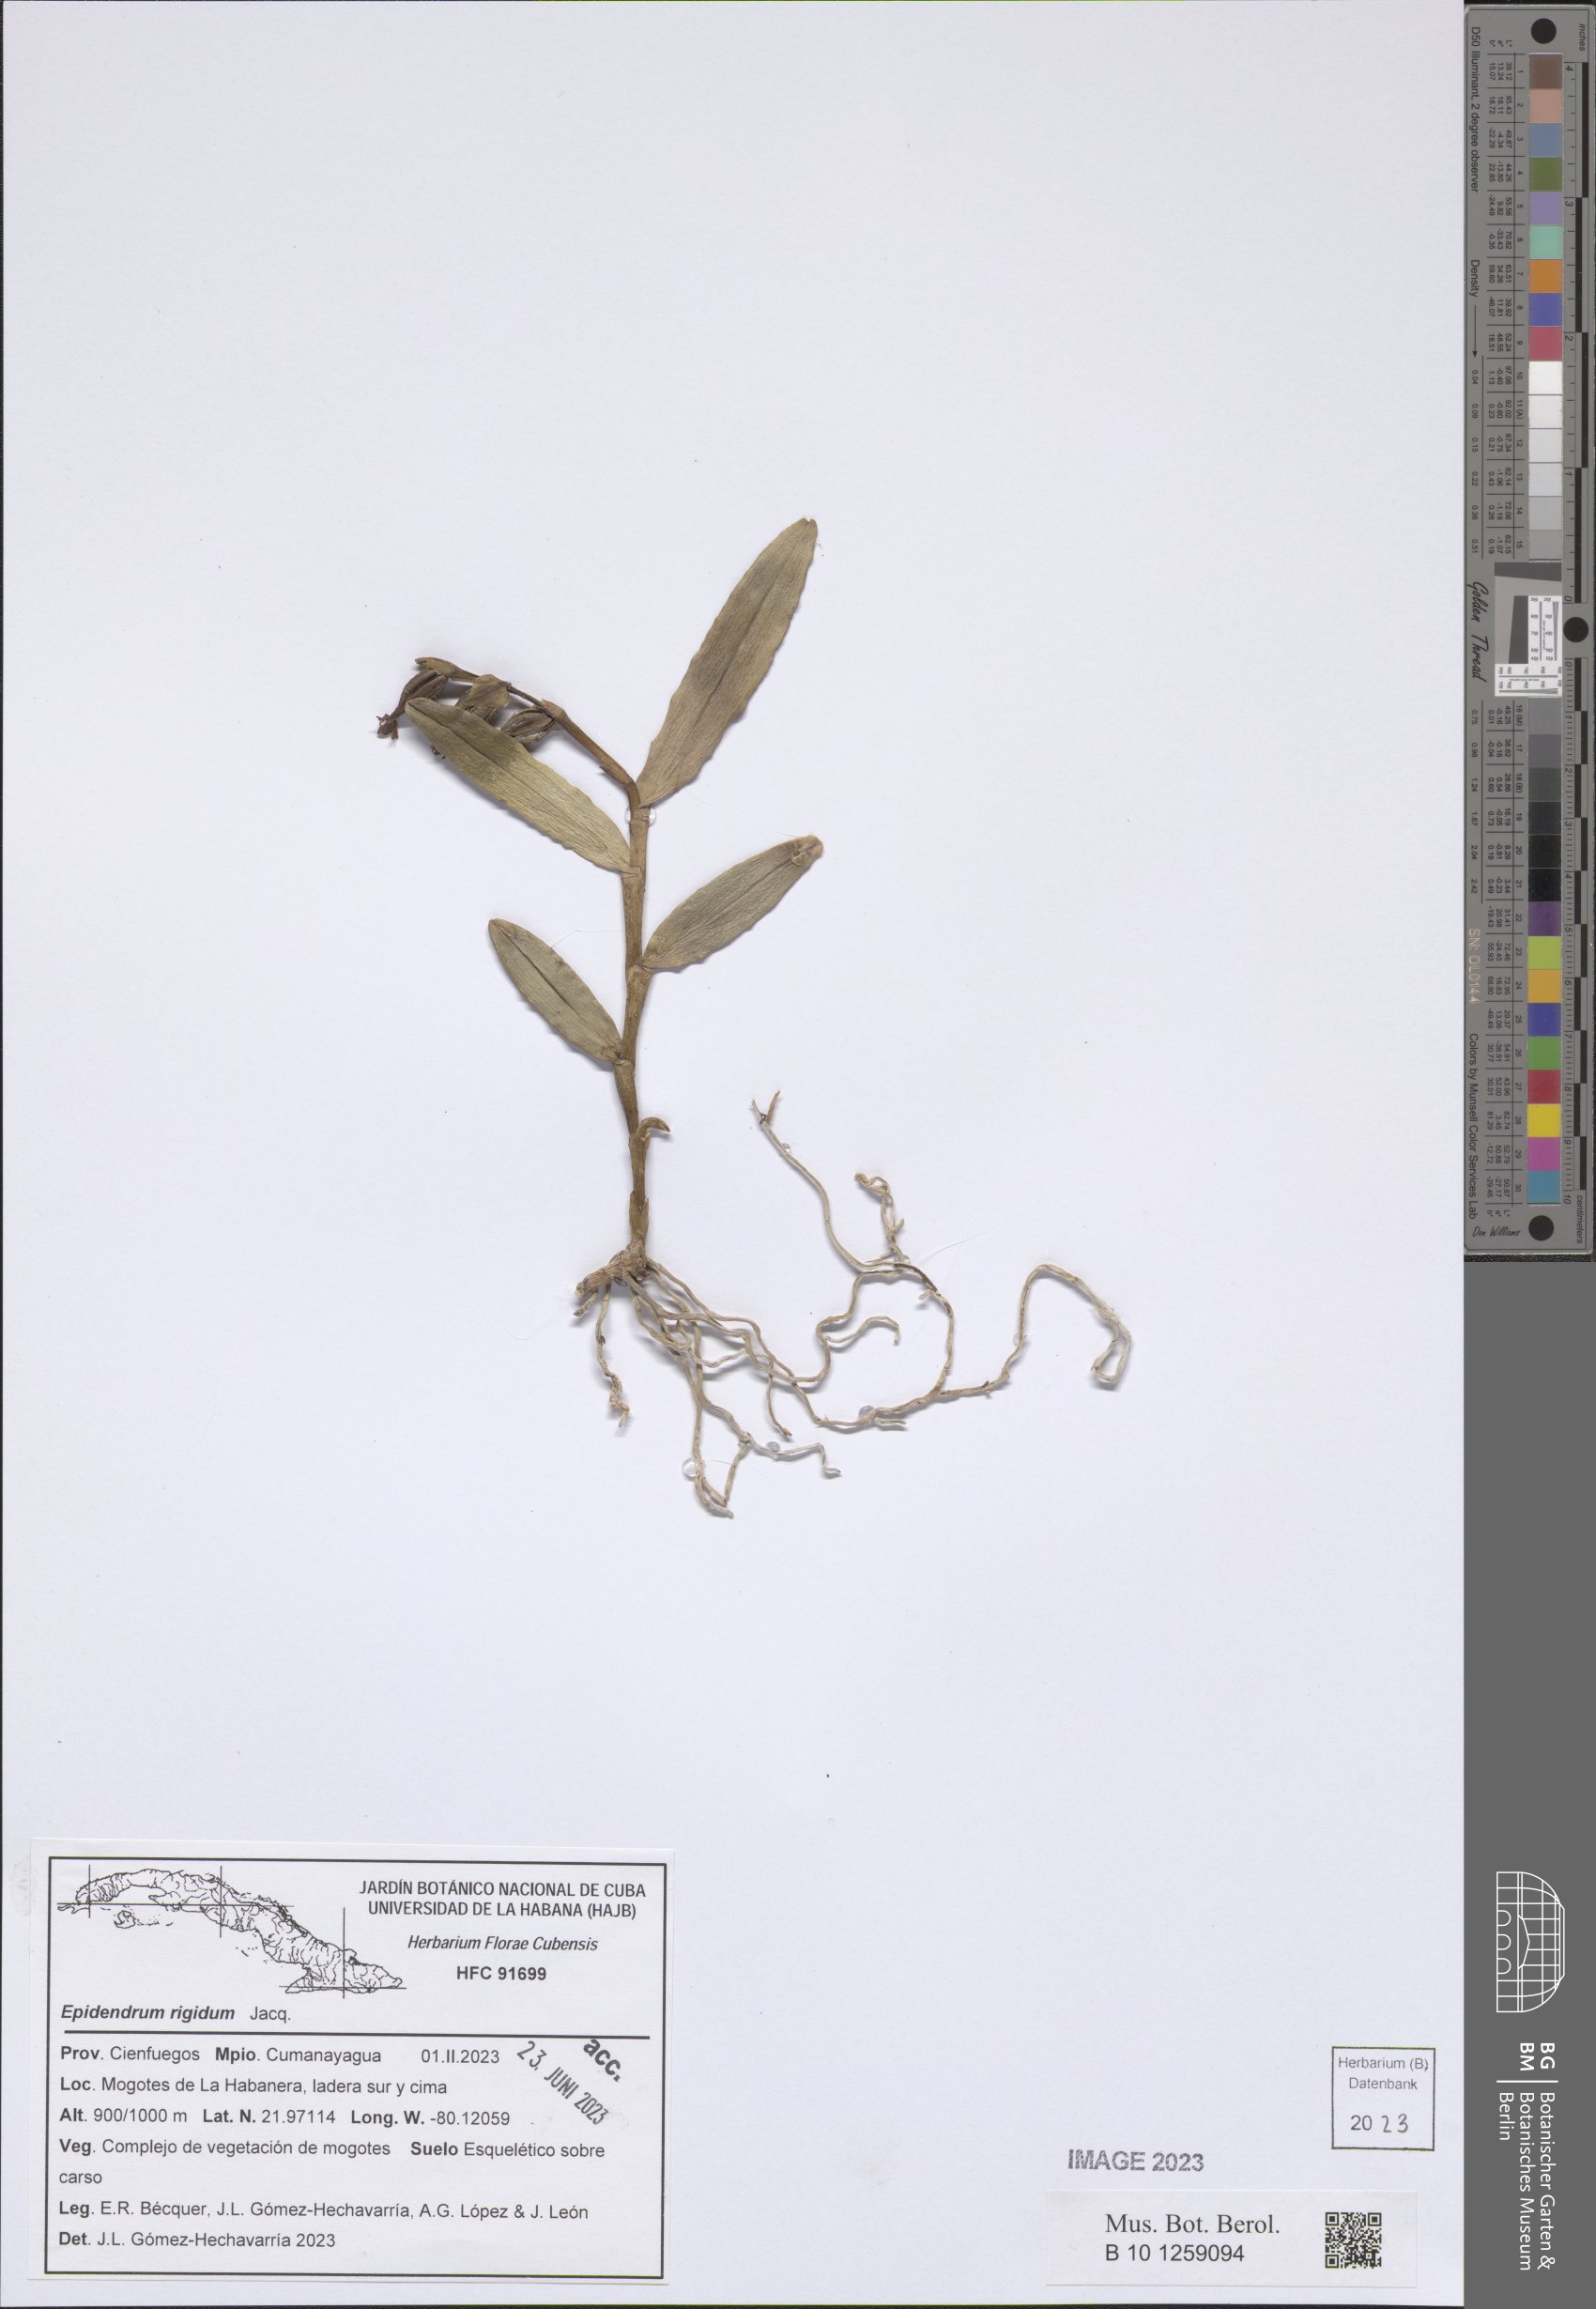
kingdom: Plantae
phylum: Tracheophyta
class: Liliopsida
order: Asparagales
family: Orchidaceae
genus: Epidendrum
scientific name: Epidendrum rigidum
